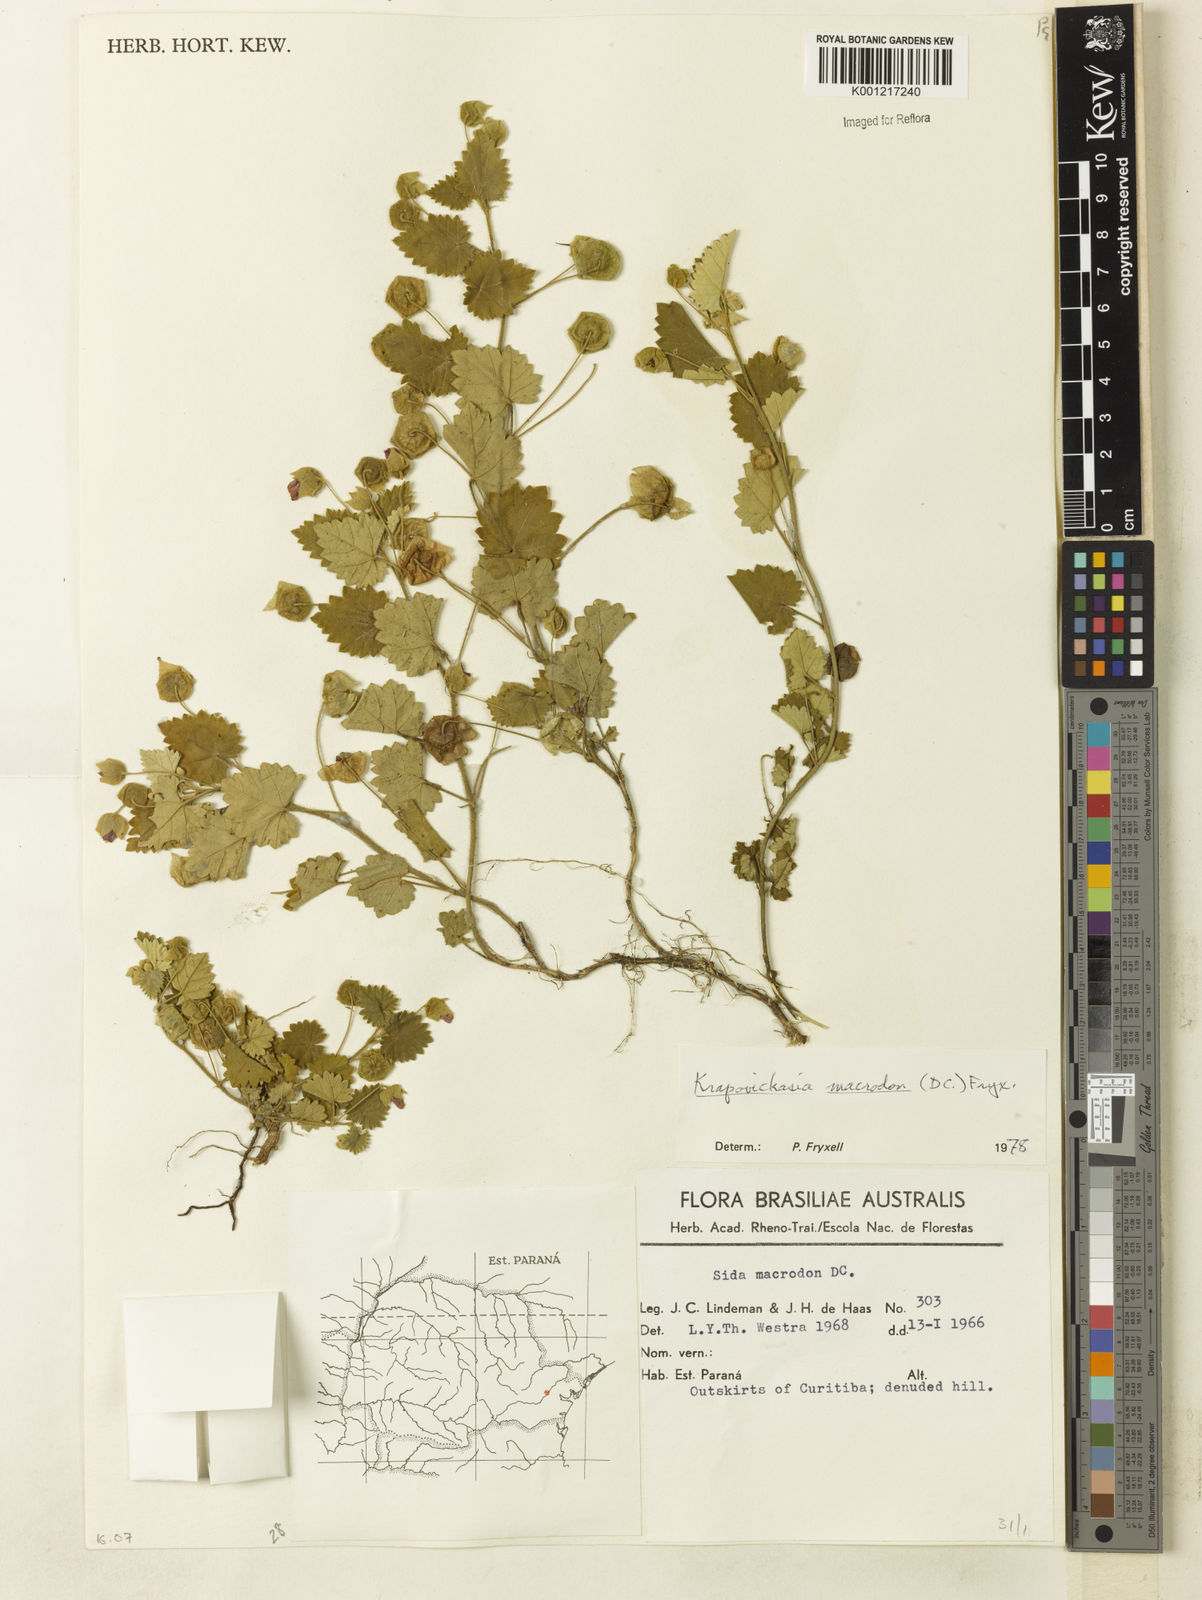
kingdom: Plantae
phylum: Tracheophyta
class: Magnoliopsida
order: Malvales
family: Malvaceae
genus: Krapovickasia
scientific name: Krapovickasia macrodon
